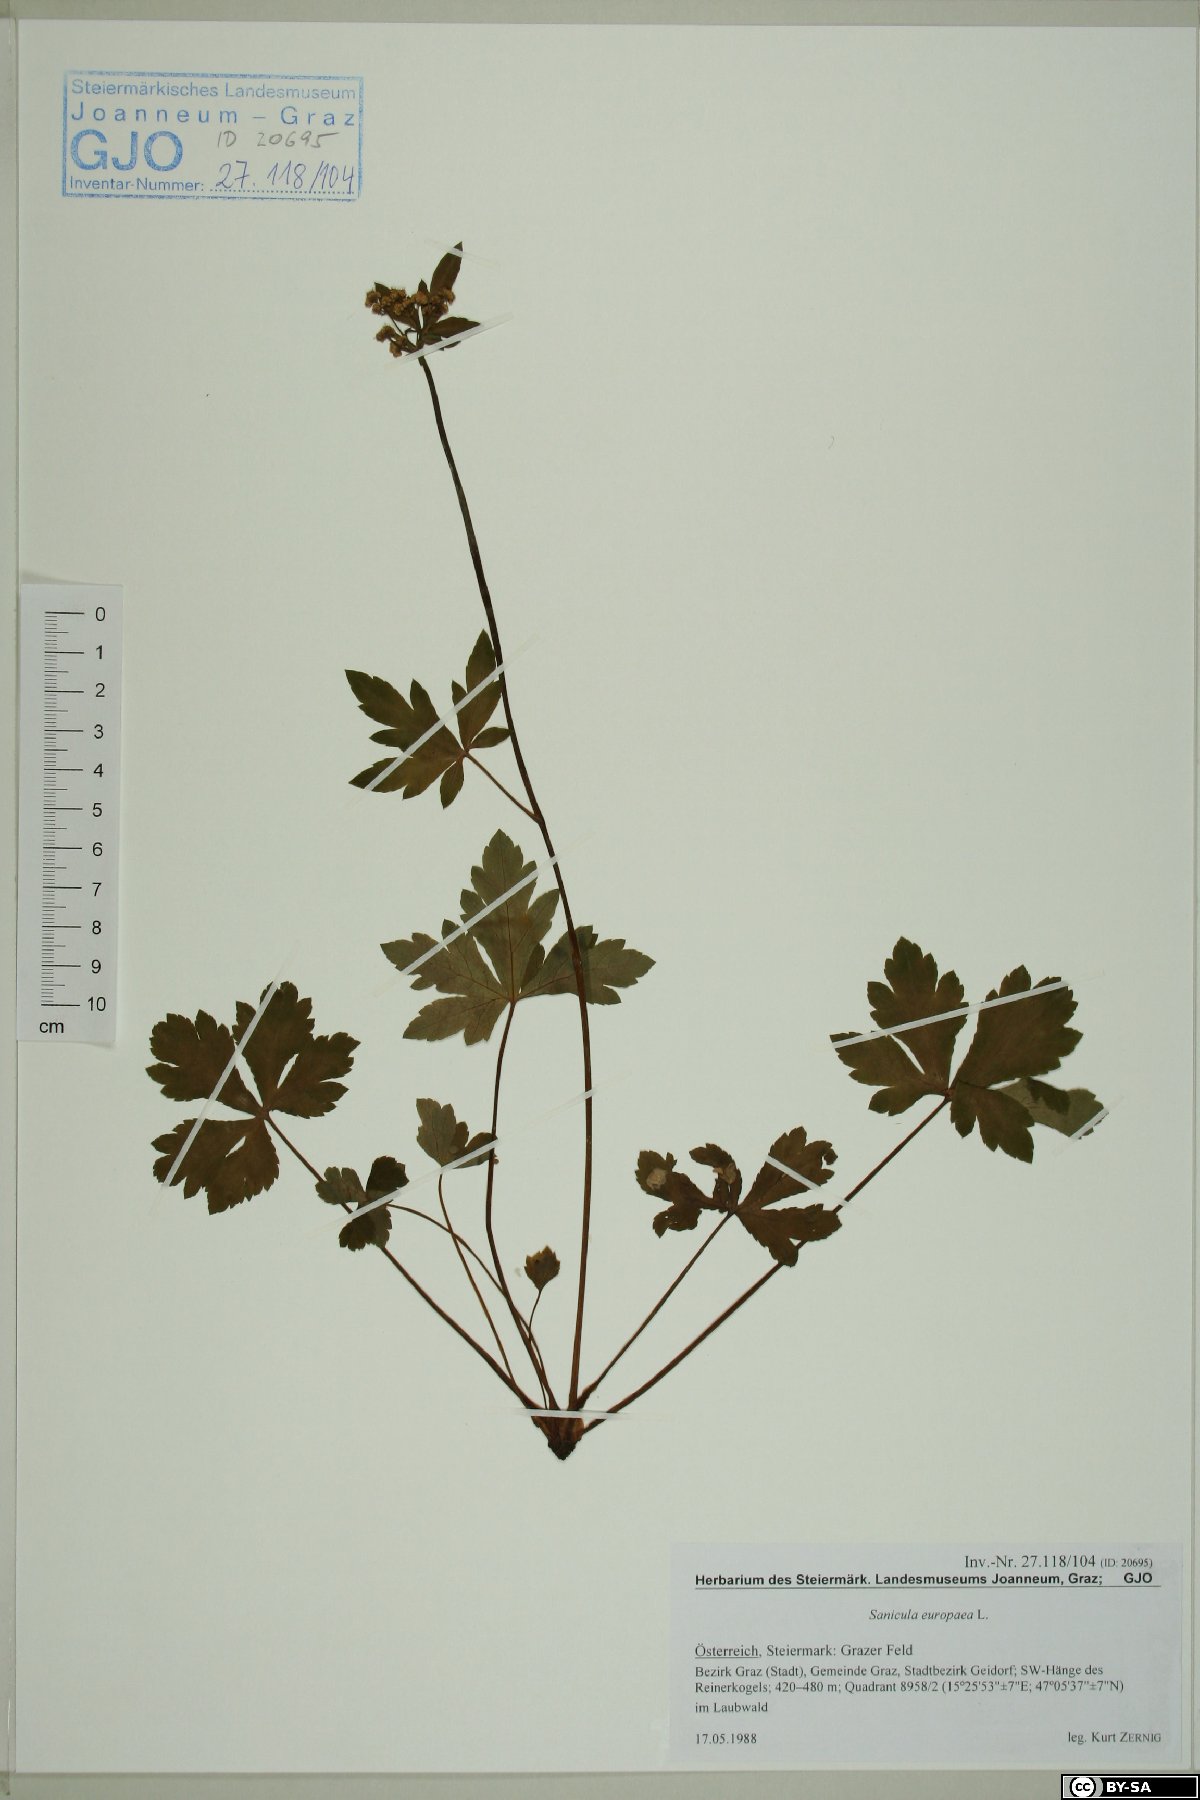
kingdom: Plantae
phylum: Tracheophyta
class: Magnoliopsida
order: Apiales
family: Apiaceae
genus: Sanicula
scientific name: Sanicula europaea
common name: Sanicle
